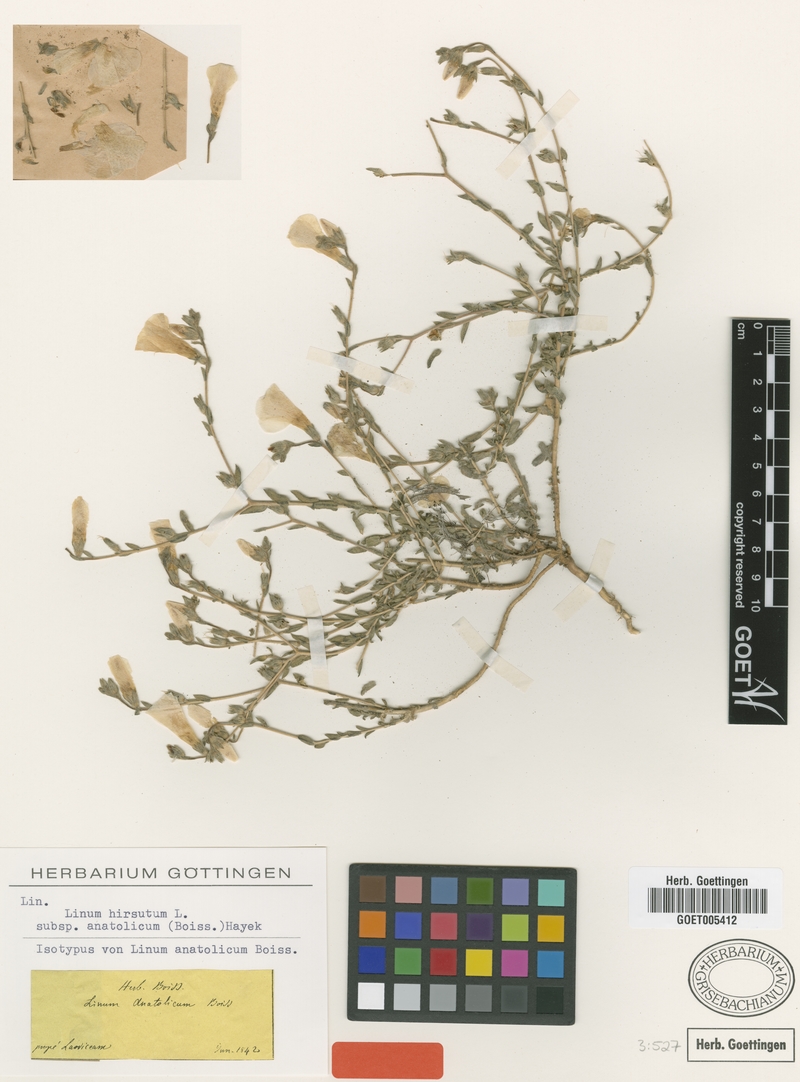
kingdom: Plantae
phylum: Tracheophyta
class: Magnoliopsida
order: Malpighiales
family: Linaceae
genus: Linum
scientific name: Linum hirsutum
